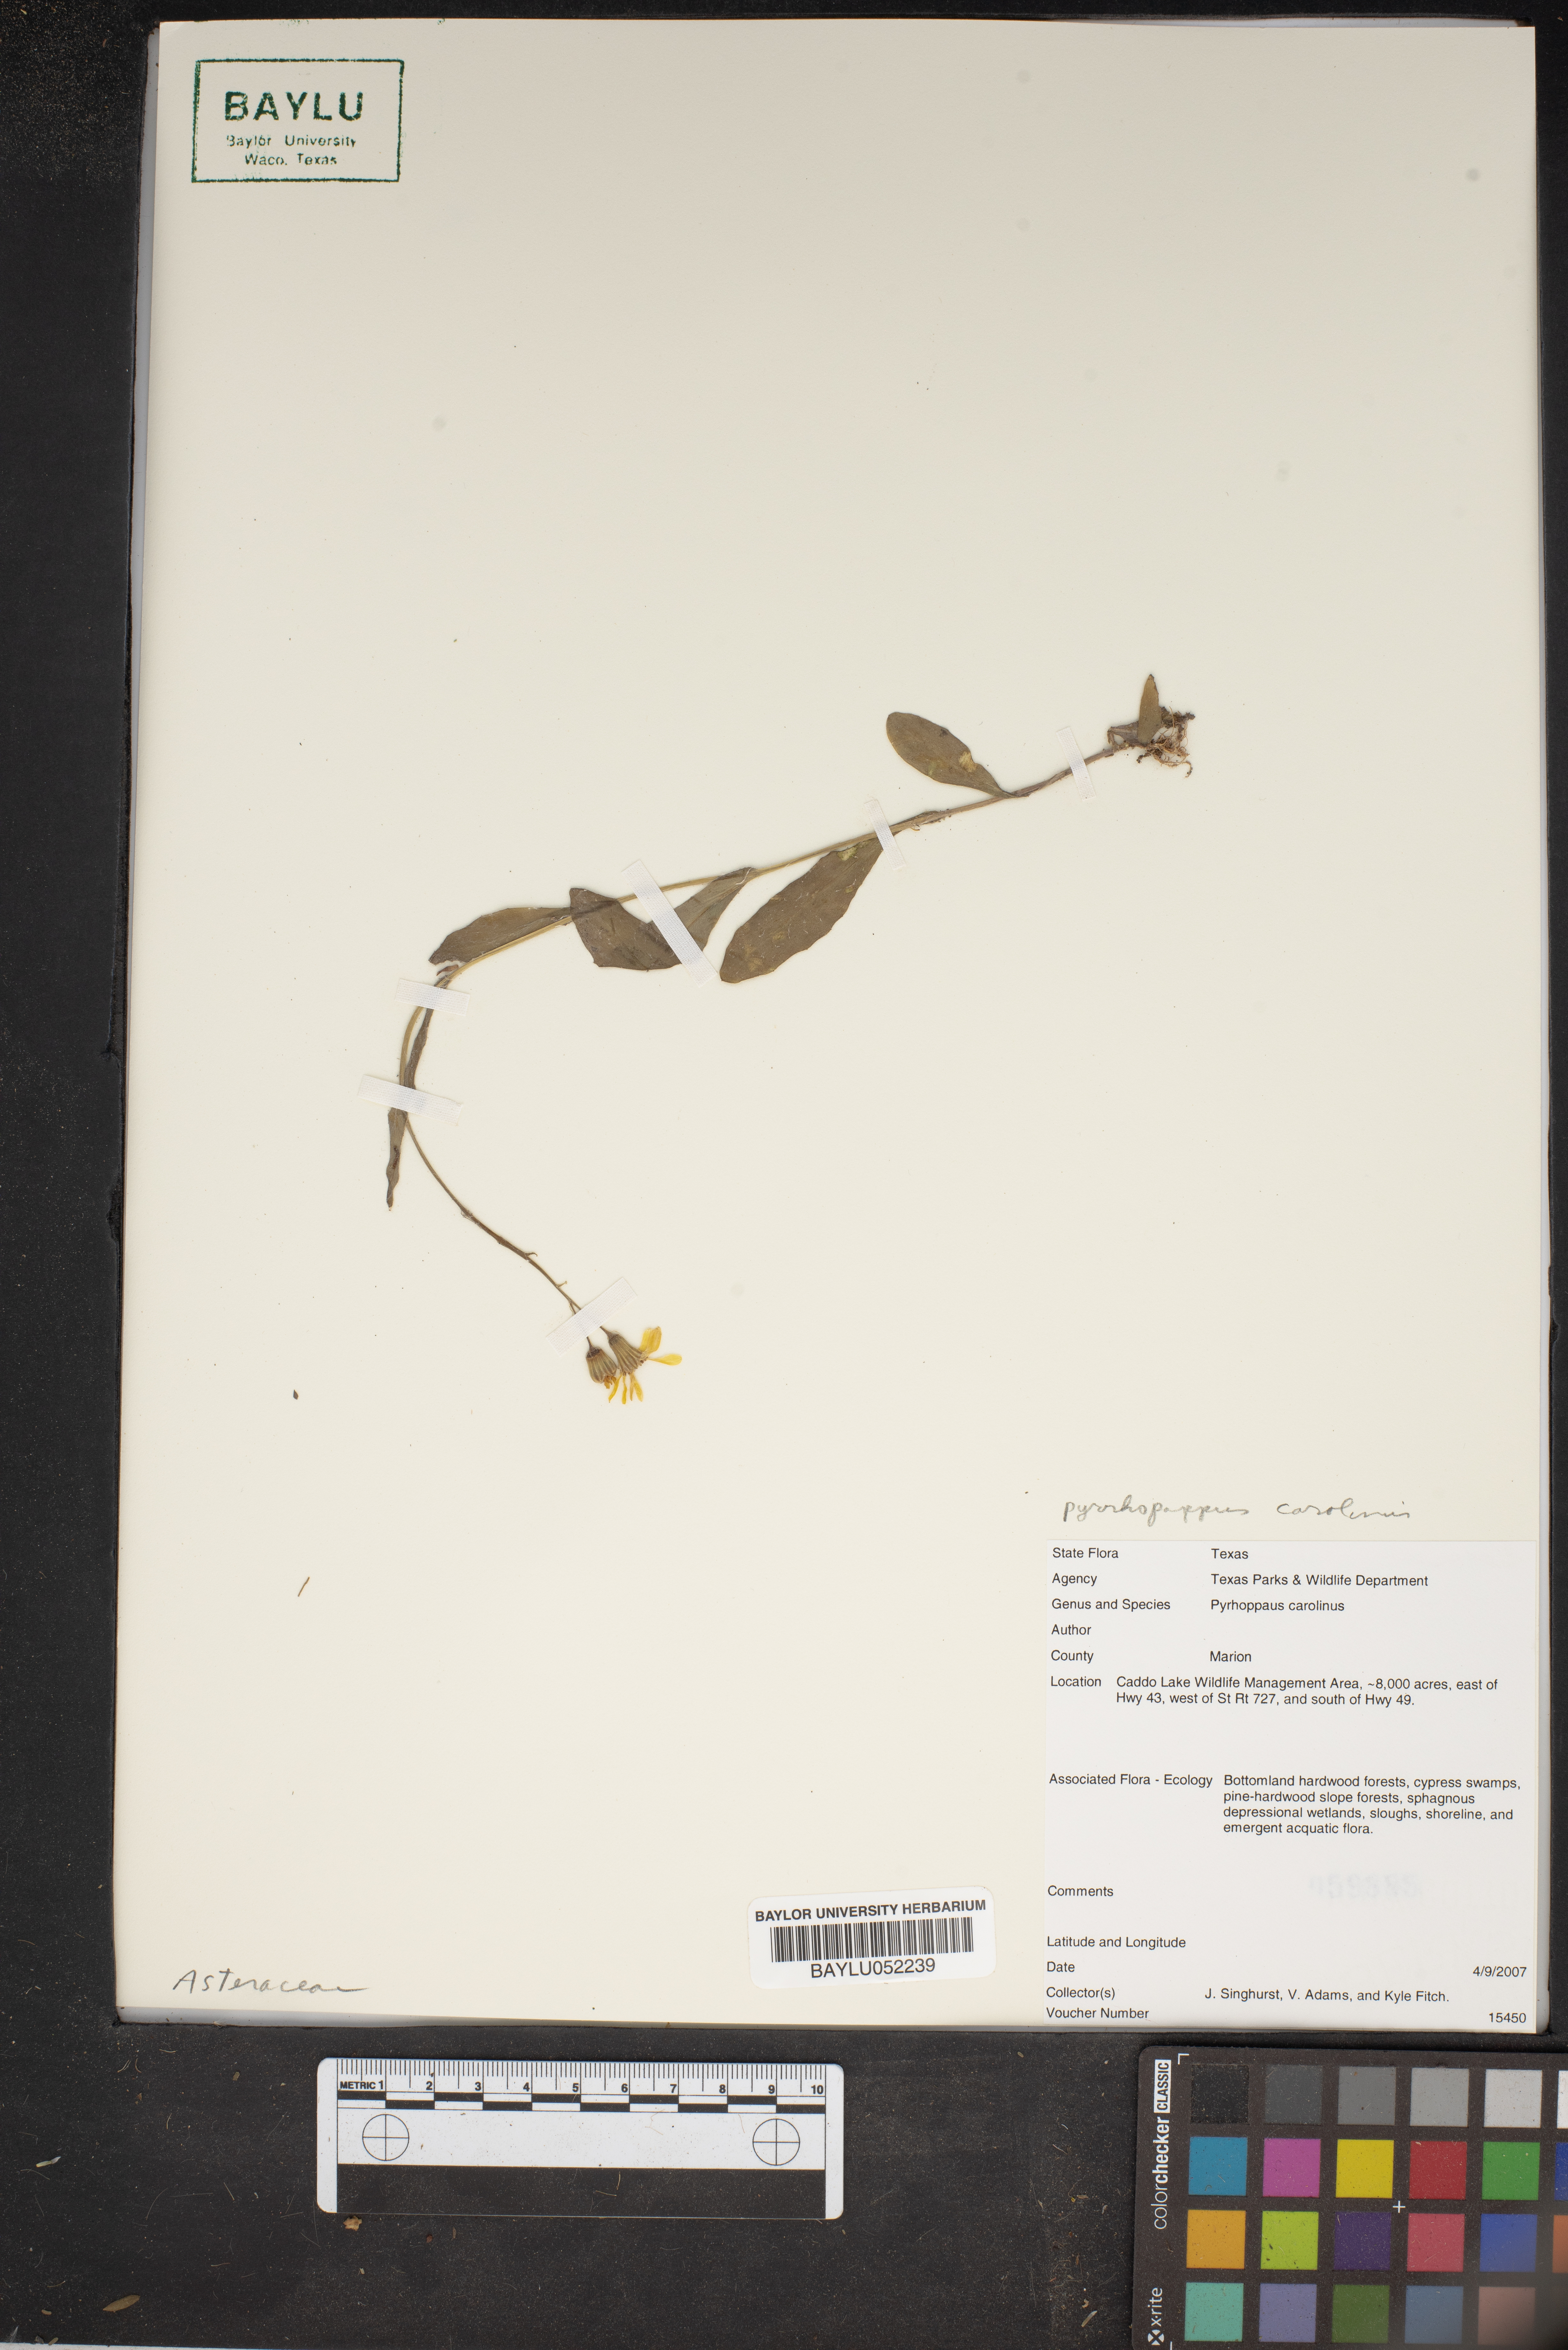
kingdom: Plantae
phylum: Tracheophyta
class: Magnoliopsida
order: Asterales
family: Asteraceae
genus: Pyrrhopappus
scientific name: Pyrrhopappus carolinianus
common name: Carolina desert-chicory
